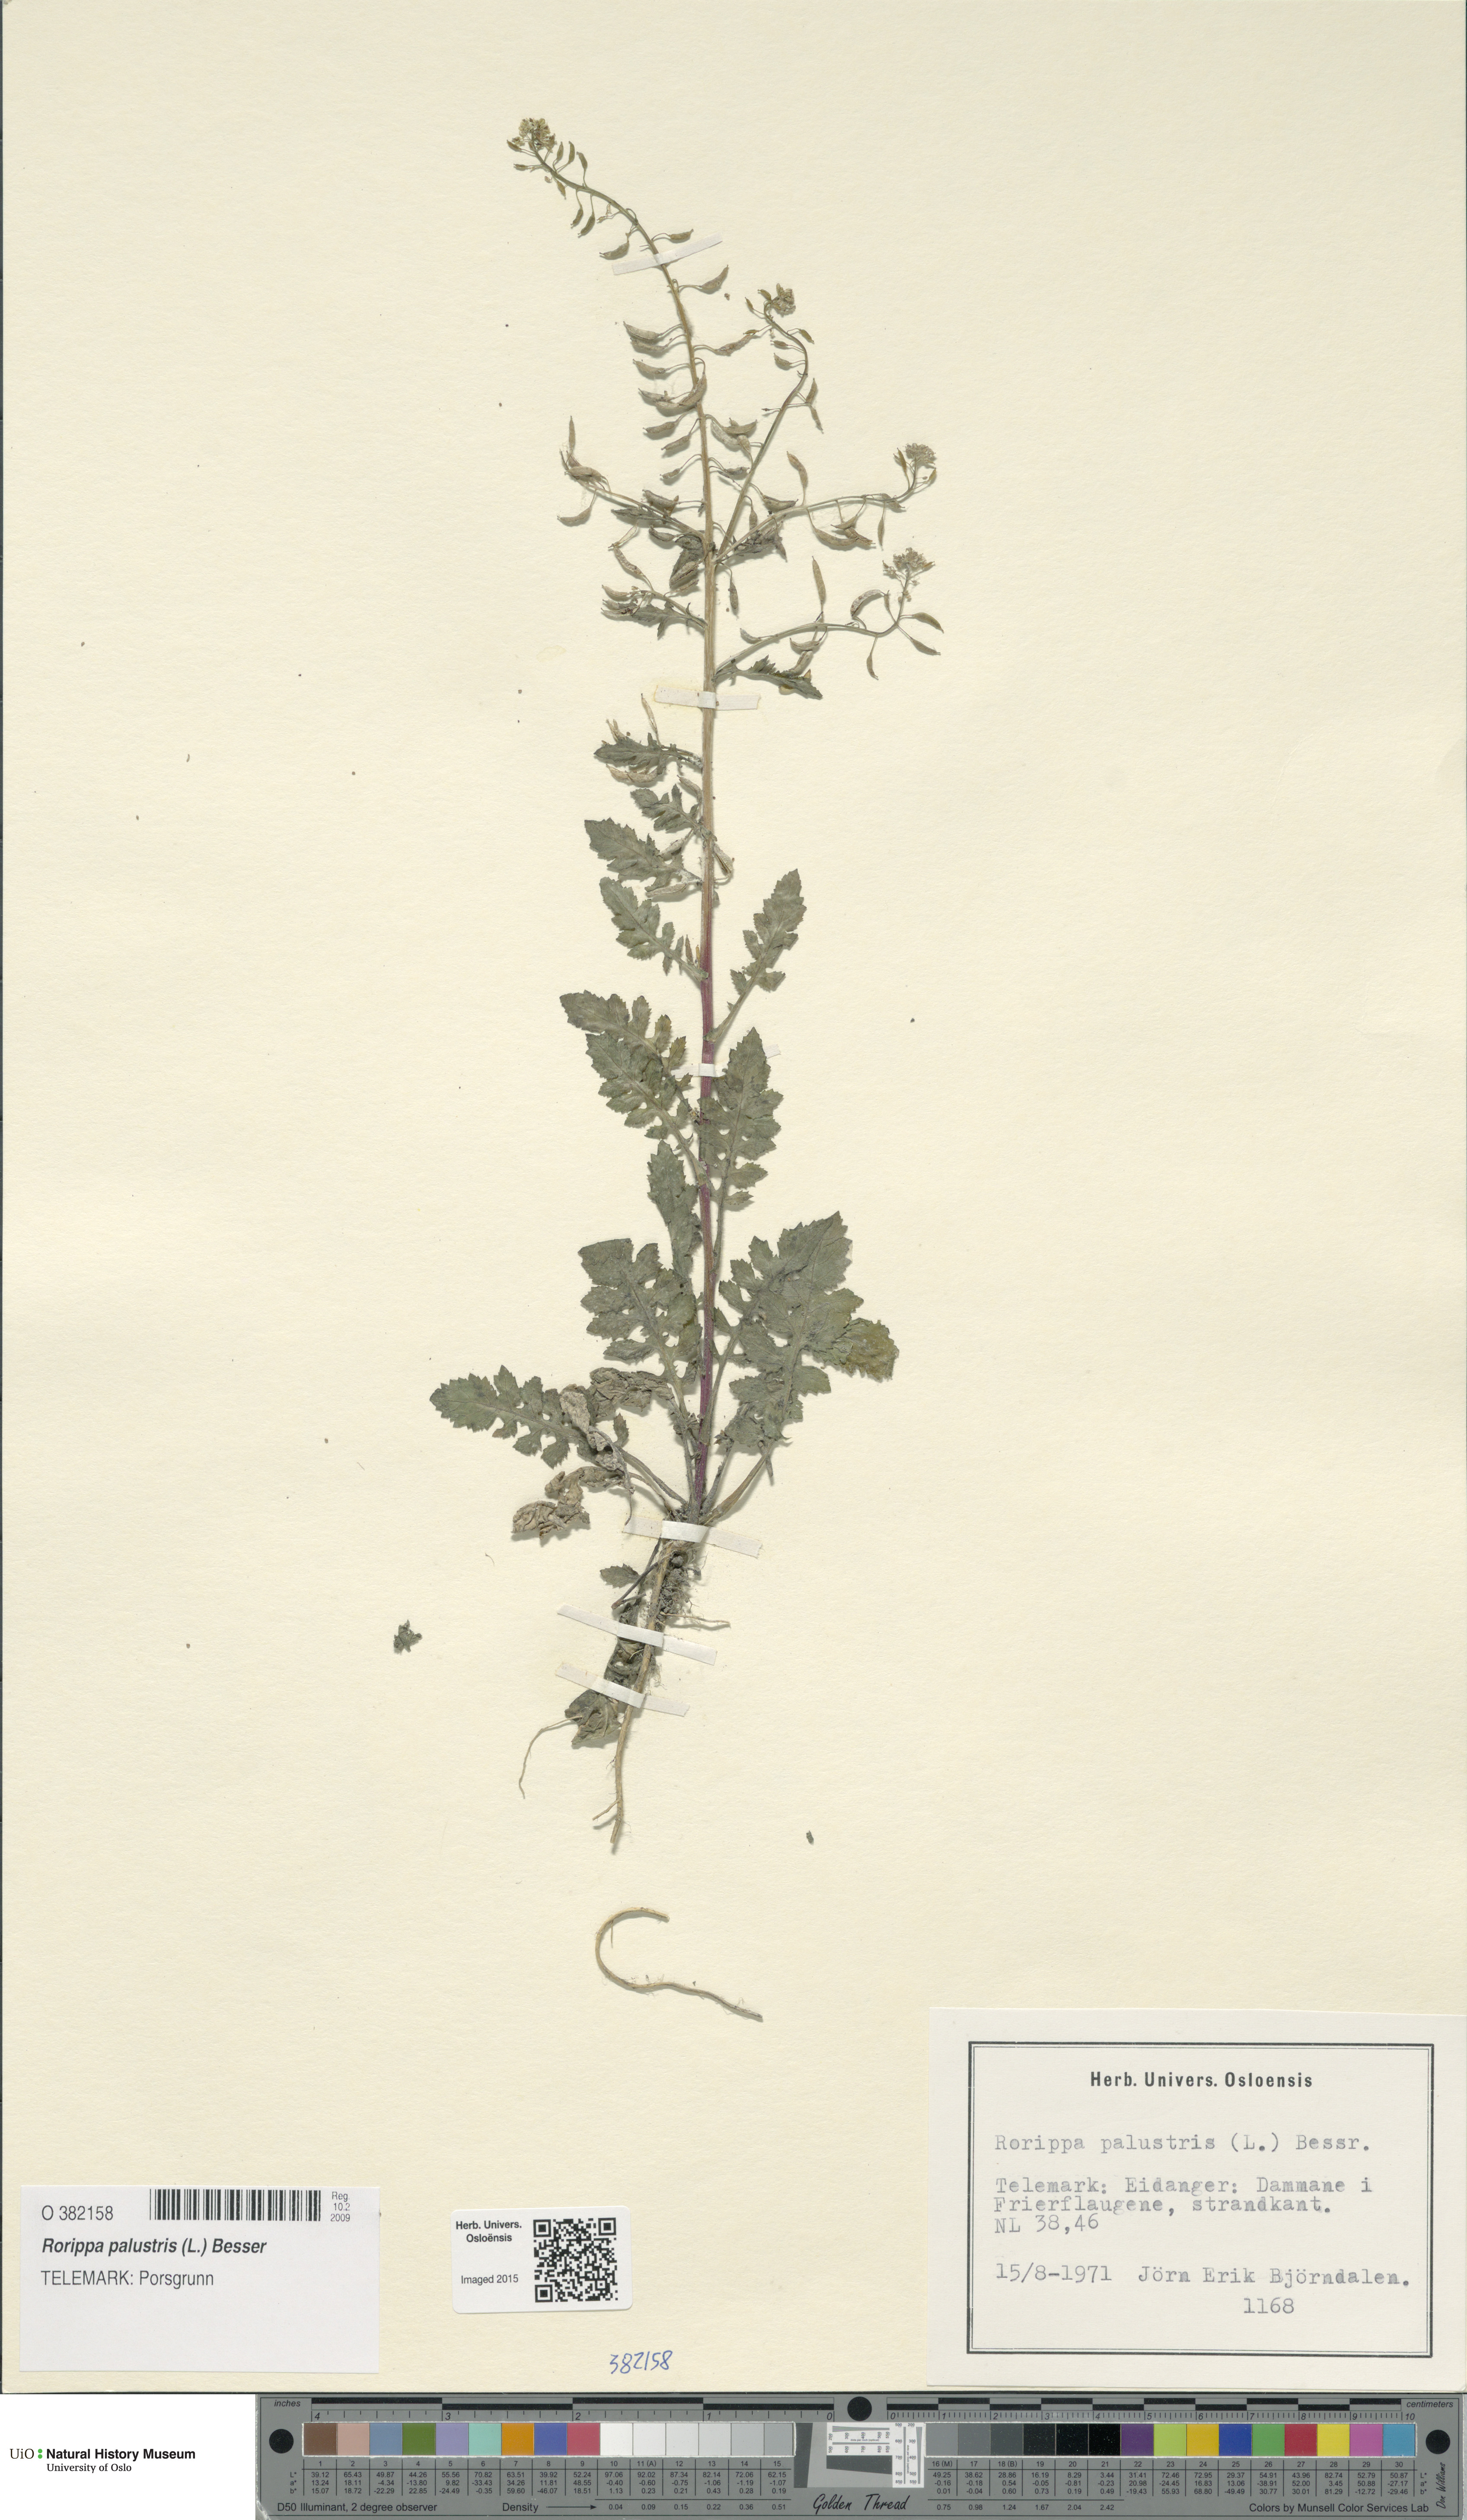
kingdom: Plantae
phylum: Tracheophyta
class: Magnoliopsida
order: Brassicales
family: Brassicaceae
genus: Rorippa
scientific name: Rorippa palustris
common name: Marsh yellow-cress
